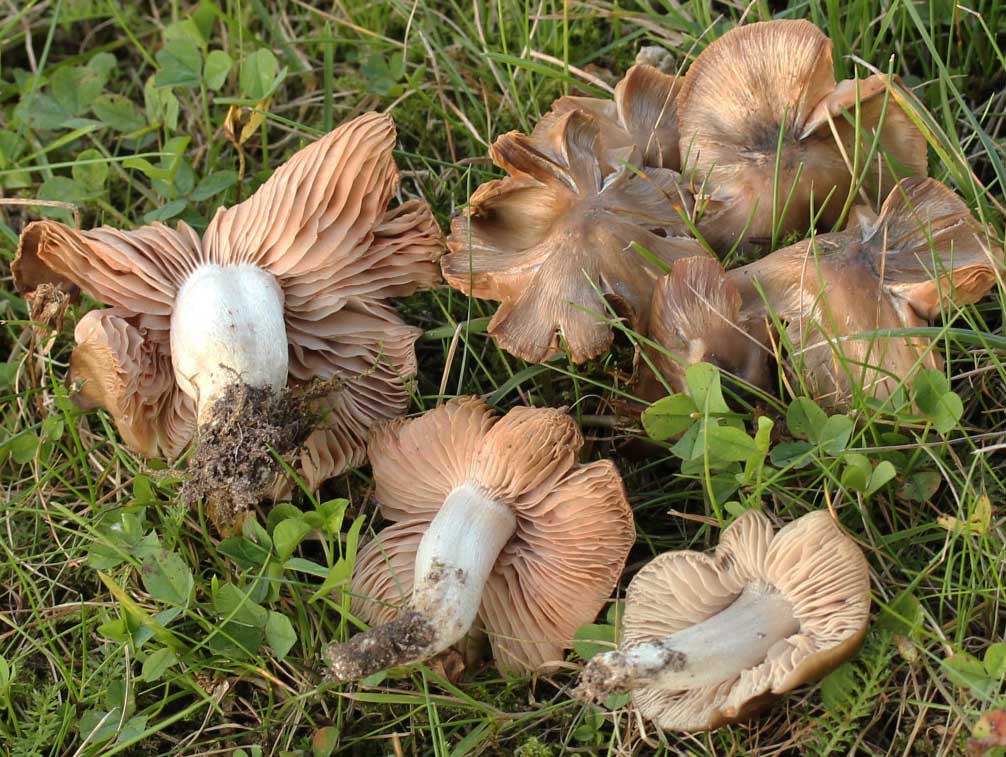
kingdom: Fungi
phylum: Basidiomycota
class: Agaricomycetes
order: Agaricales
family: Entolomataceae
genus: Entoloma
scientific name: Entoloma lividoalbum
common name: lysstokket rødblad
